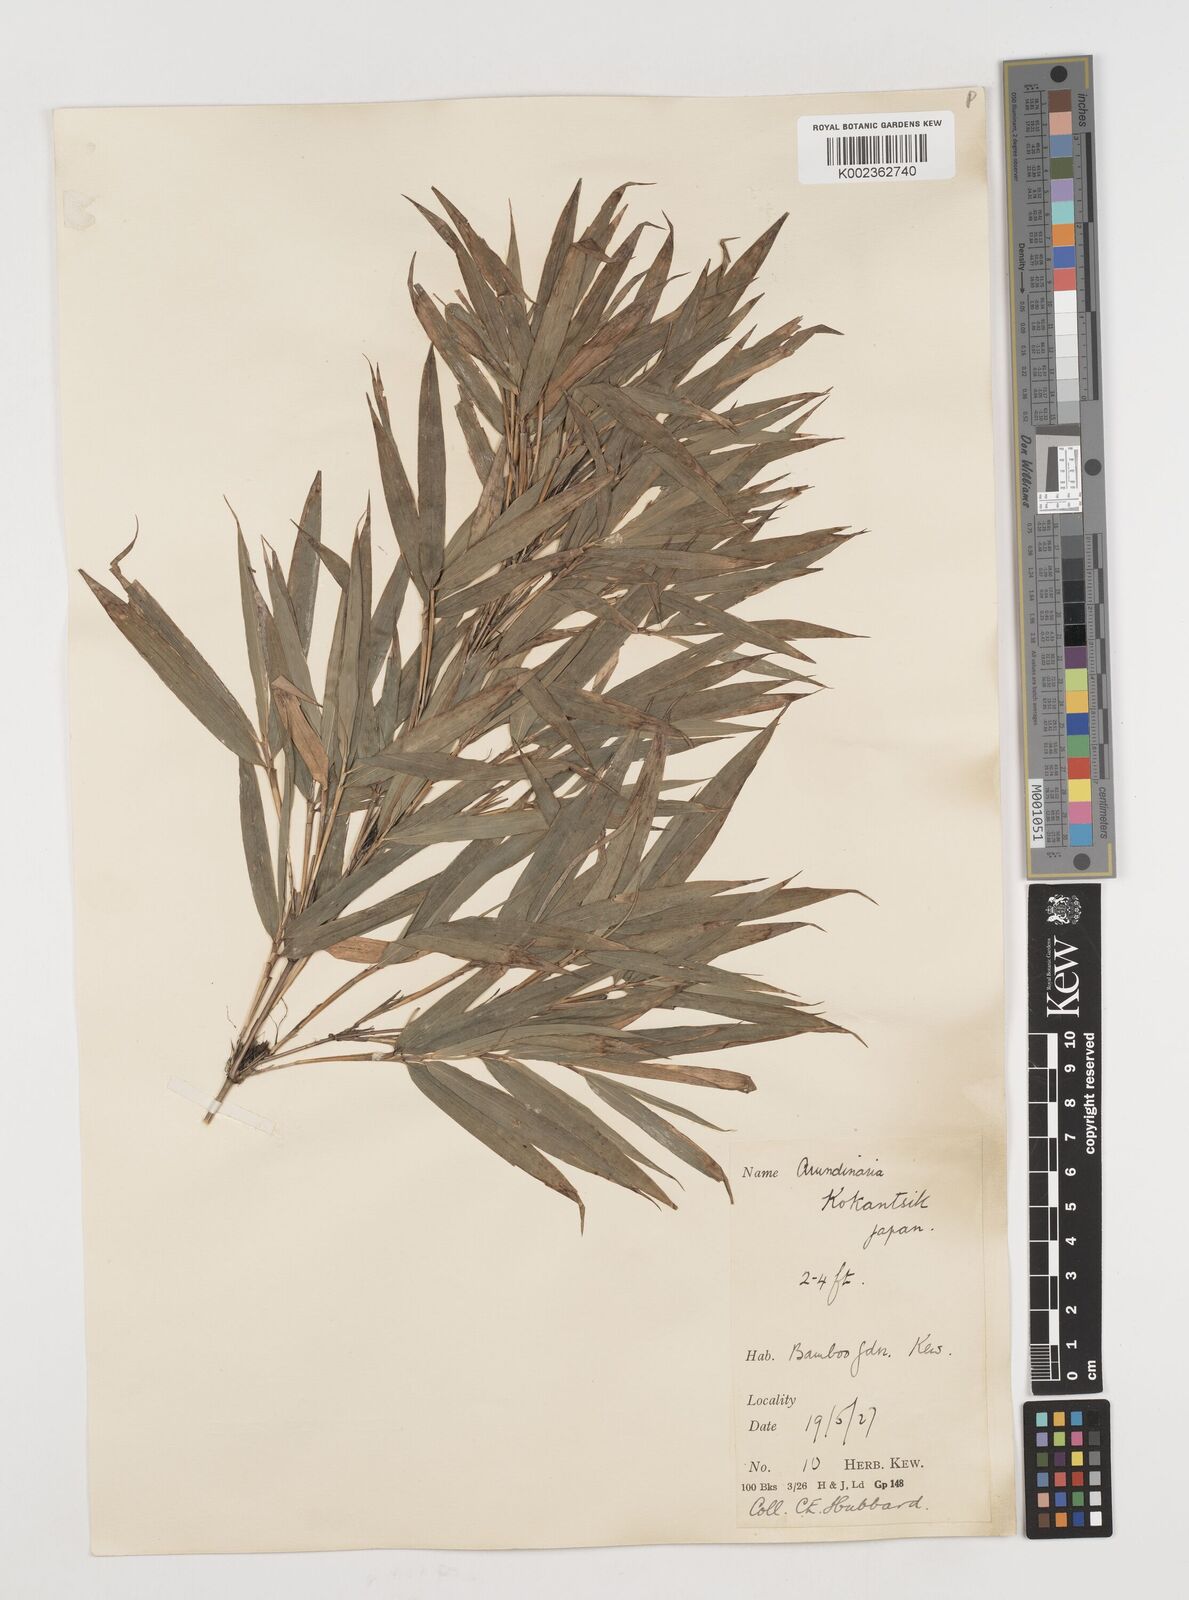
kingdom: Plantae
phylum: Tracheophyta
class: Liliopsida
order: Poales
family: Poaceae
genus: Chimonobambusa
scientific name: Chimonobambusa marmorea
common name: Marbled bamboo
